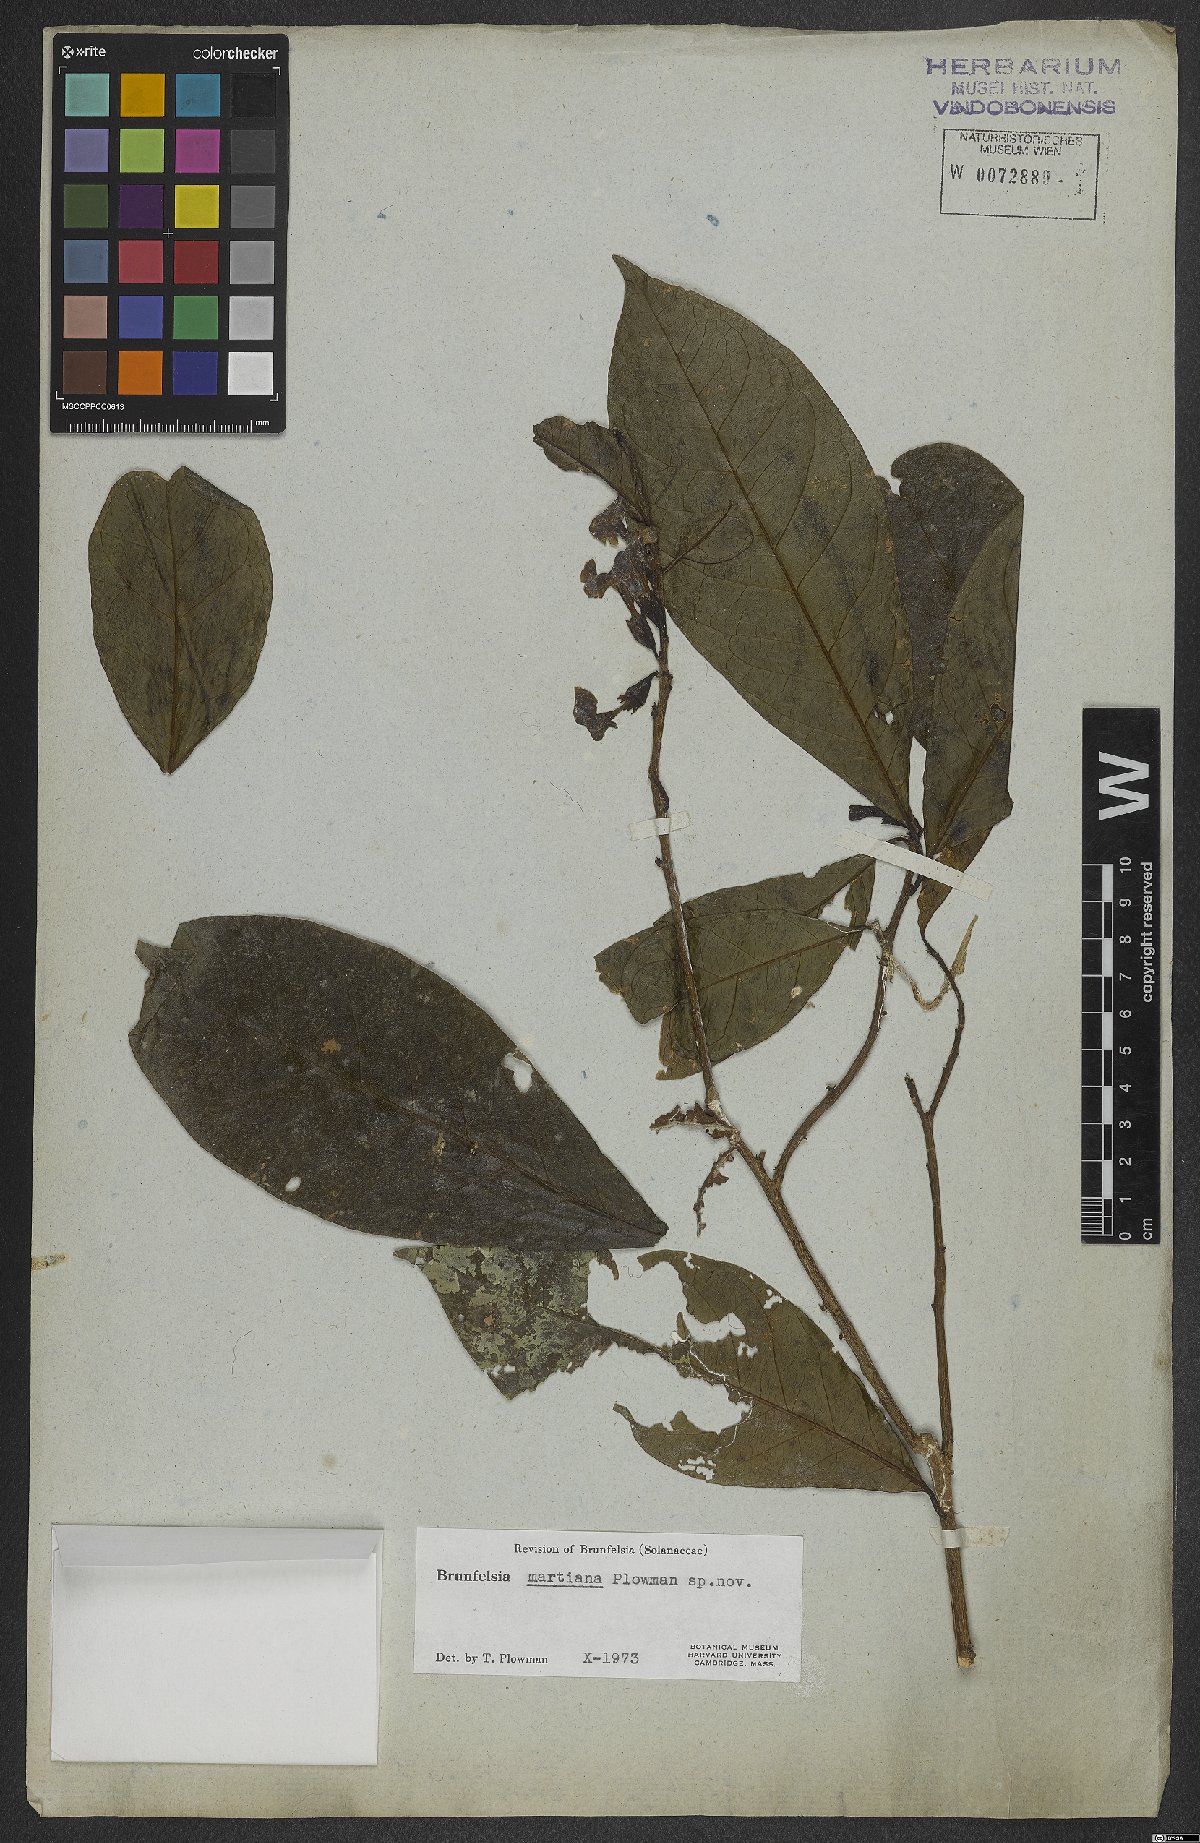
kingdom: Plantae
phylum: Tracheophyta
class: Magnoliopsida
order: Solanales
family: Solanaceae
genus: Brunfelsia
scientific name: Brunfelsia martiana
